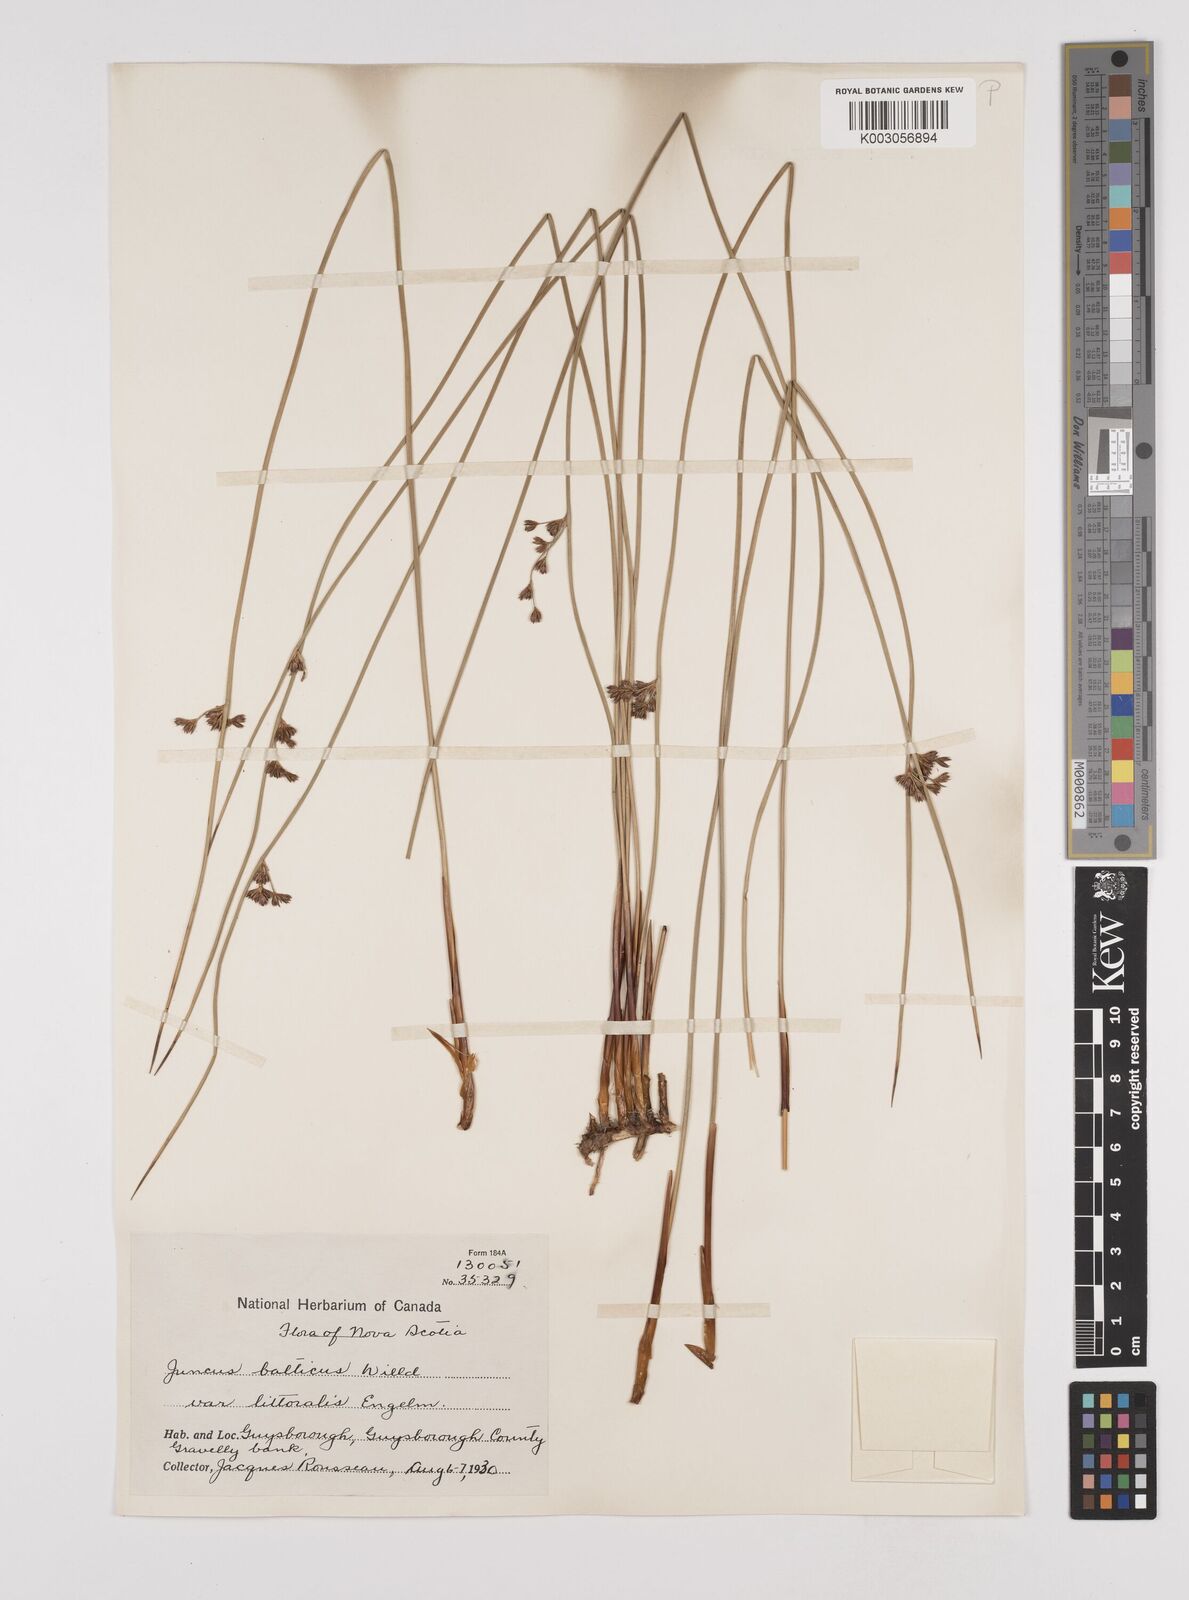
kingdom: Plantae
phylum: Tracheophyta
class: Liliopsida
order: Poales
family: Juncaceae
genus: Juncus
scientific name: Juncus balticus
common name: Baltic rush
